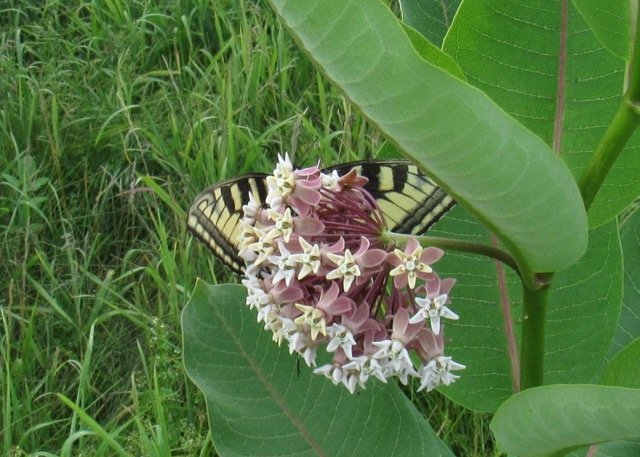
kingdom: Animalia
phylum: Arthropoda
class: Insecta
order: Lepidoptera
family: Papilionidae
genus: Pterourus
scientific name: Pterourus
